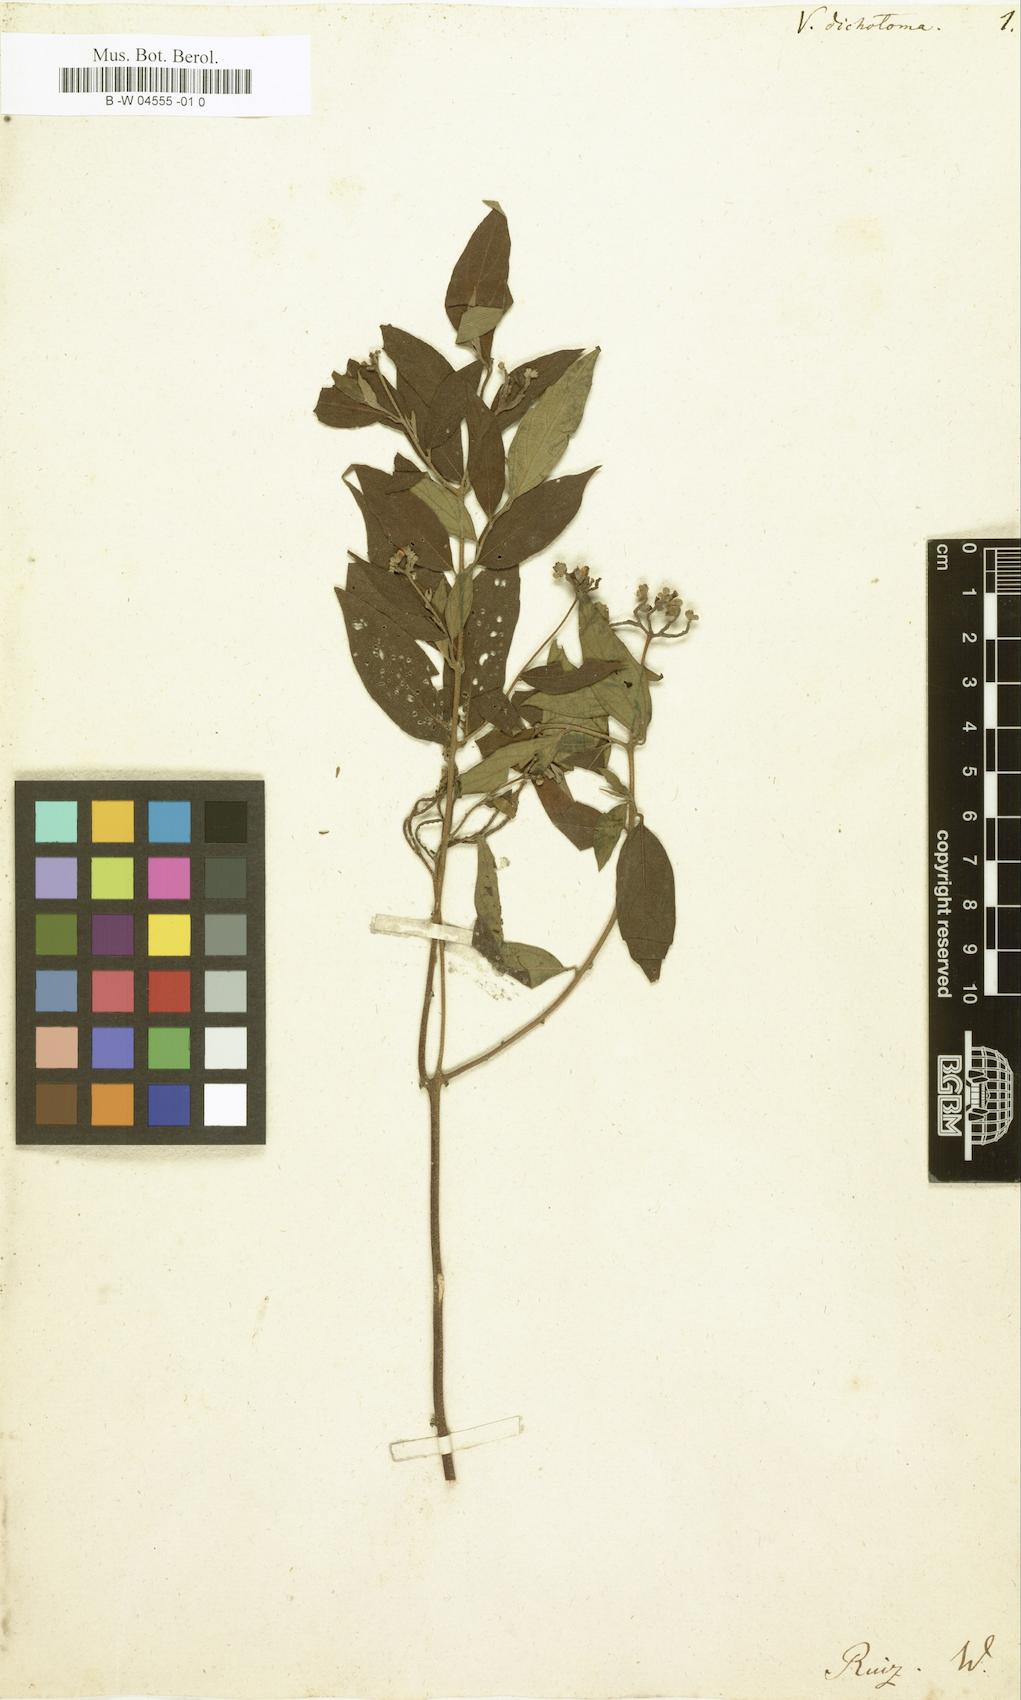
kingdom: Plantae
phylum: Tracheophyta
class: Magnoliopsida
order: Boraginales
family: Cordiaceae
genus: Varronia
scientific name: Varronia dichotoma
